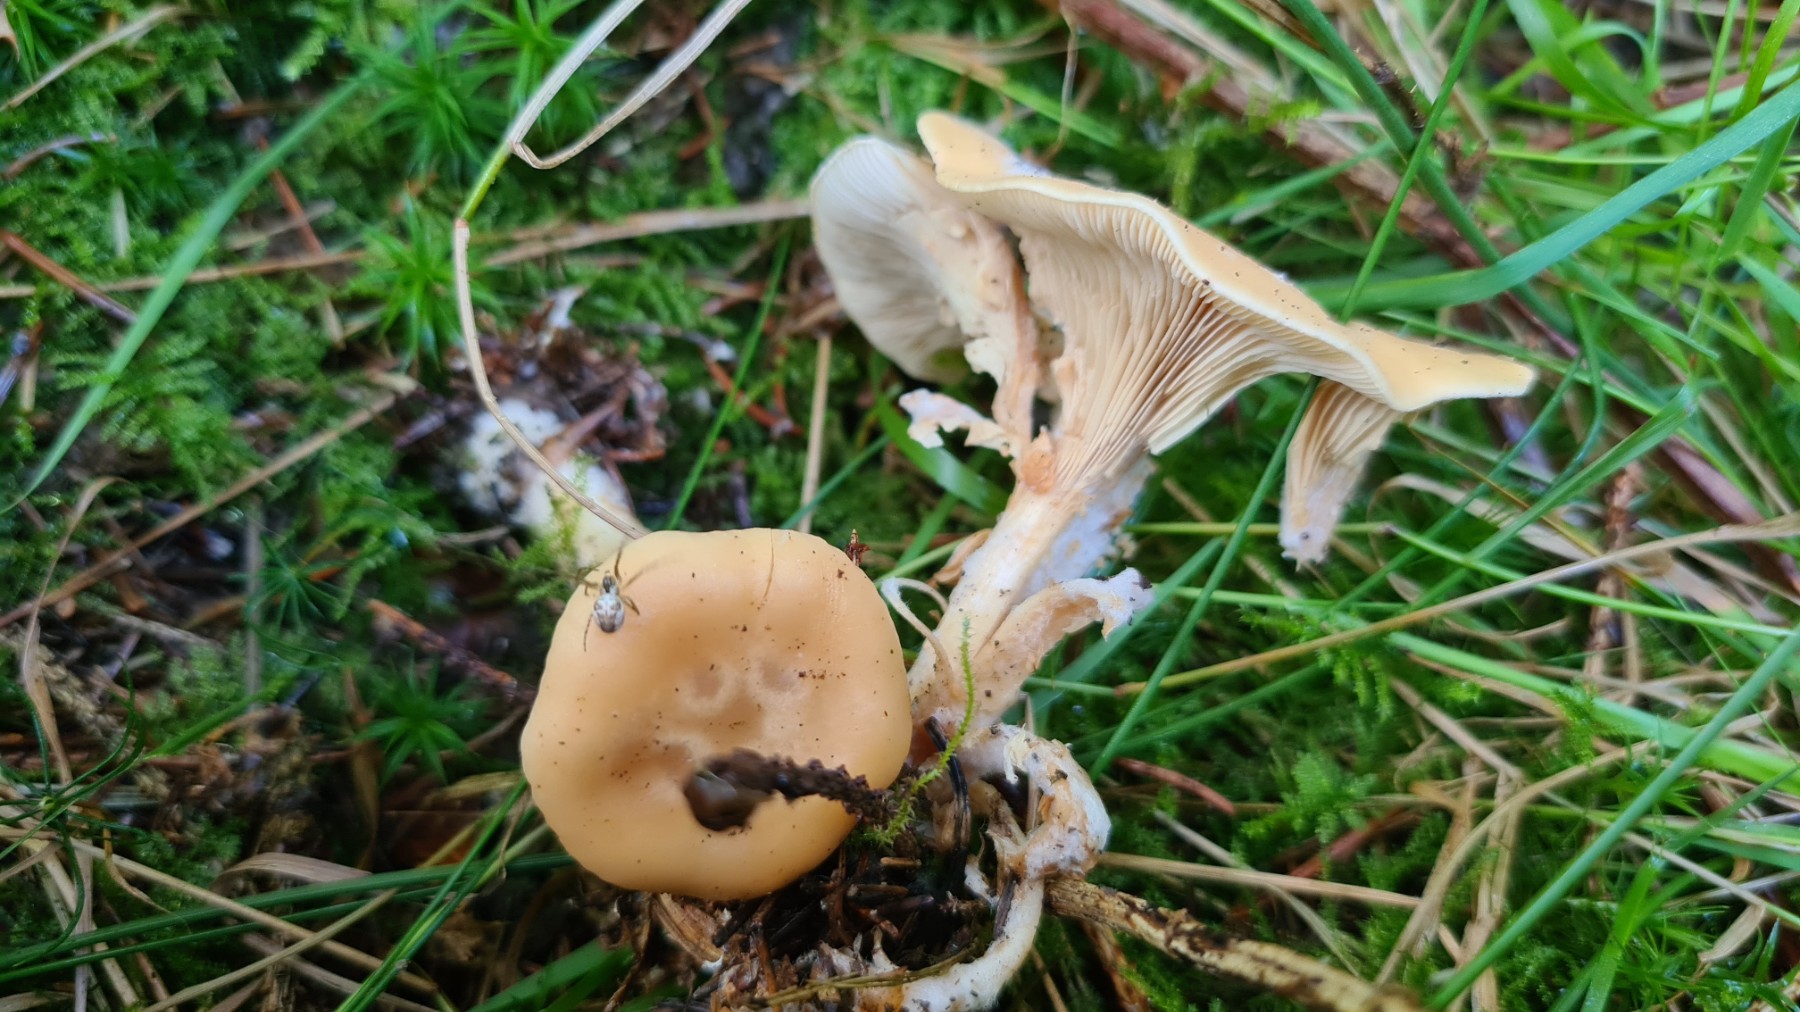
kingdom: Fungi
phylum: Basidiomycota
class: Agaricomycetes
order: Agaricales
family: Tricholomataceae
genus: Paralepista
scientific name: Paralepista flaccida
